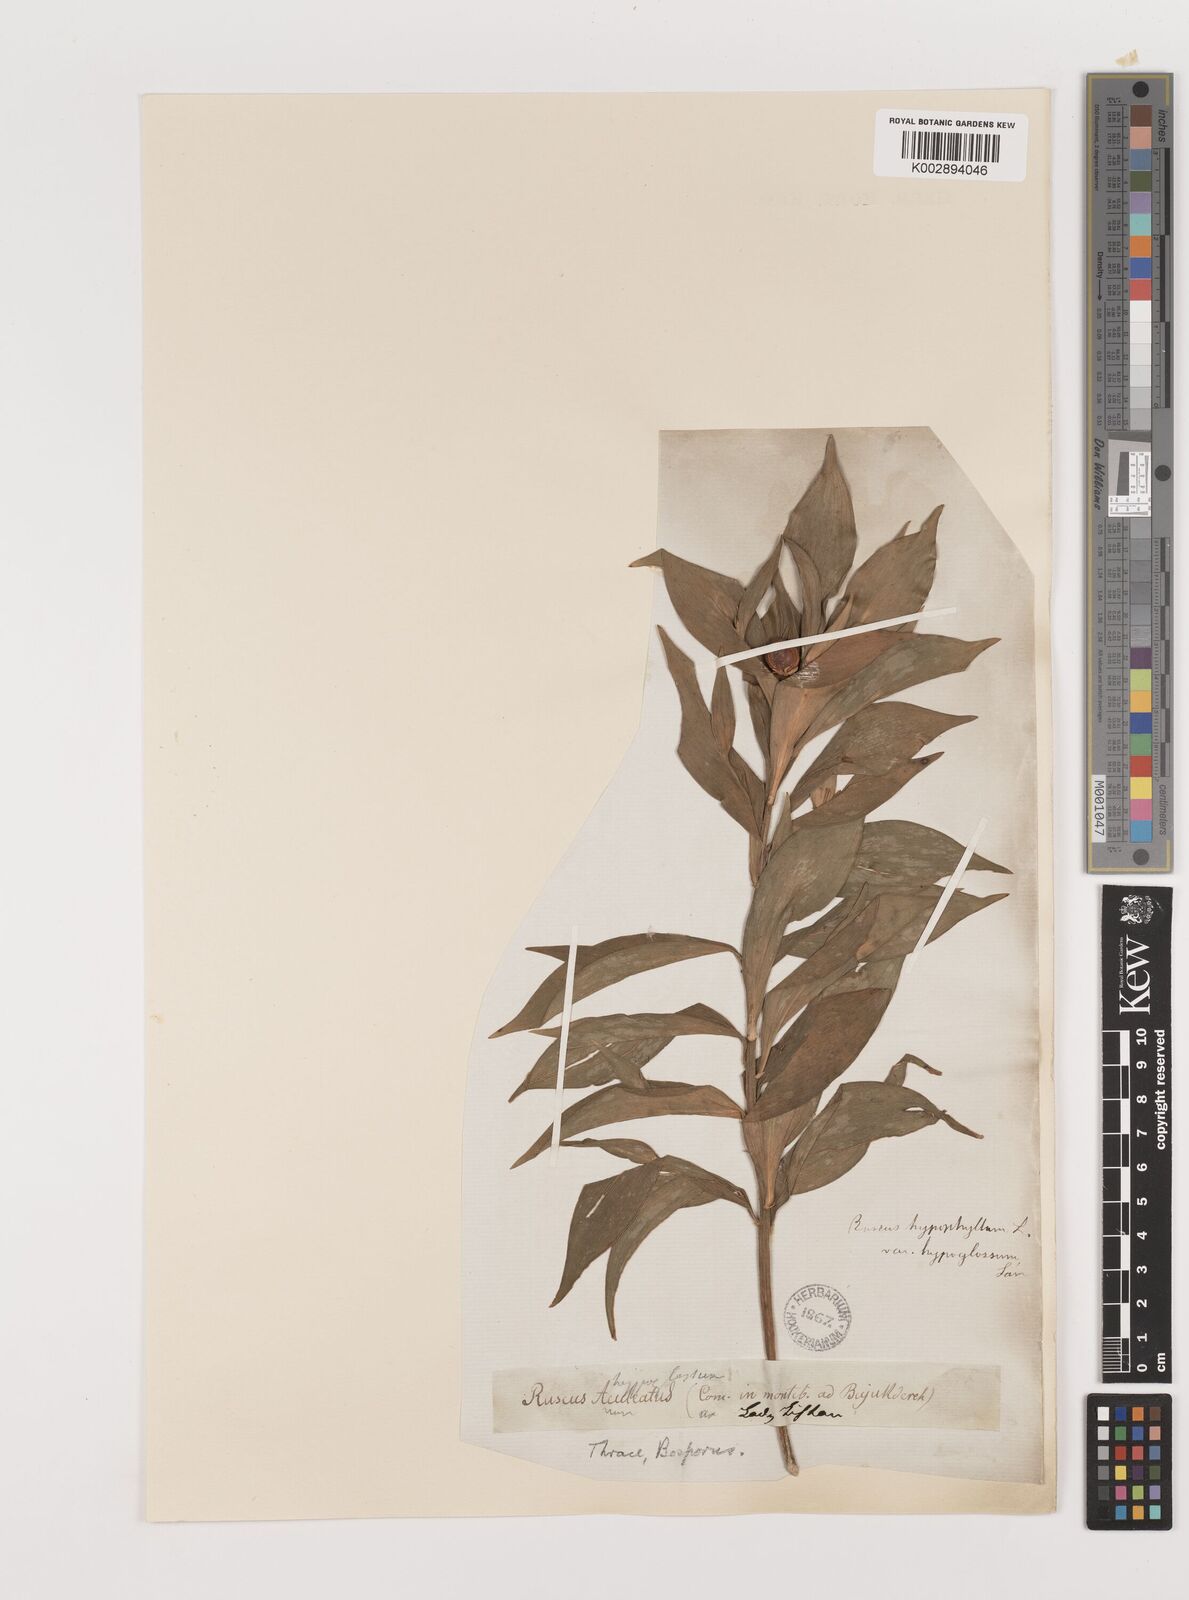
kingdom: Plantae
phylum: Tracheophyta
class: Liliopsida
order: Asparagales
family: Asparagaceae
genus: Ruscus
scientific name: Ruscus hypoglossum
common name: Spineless butcher's-broom
